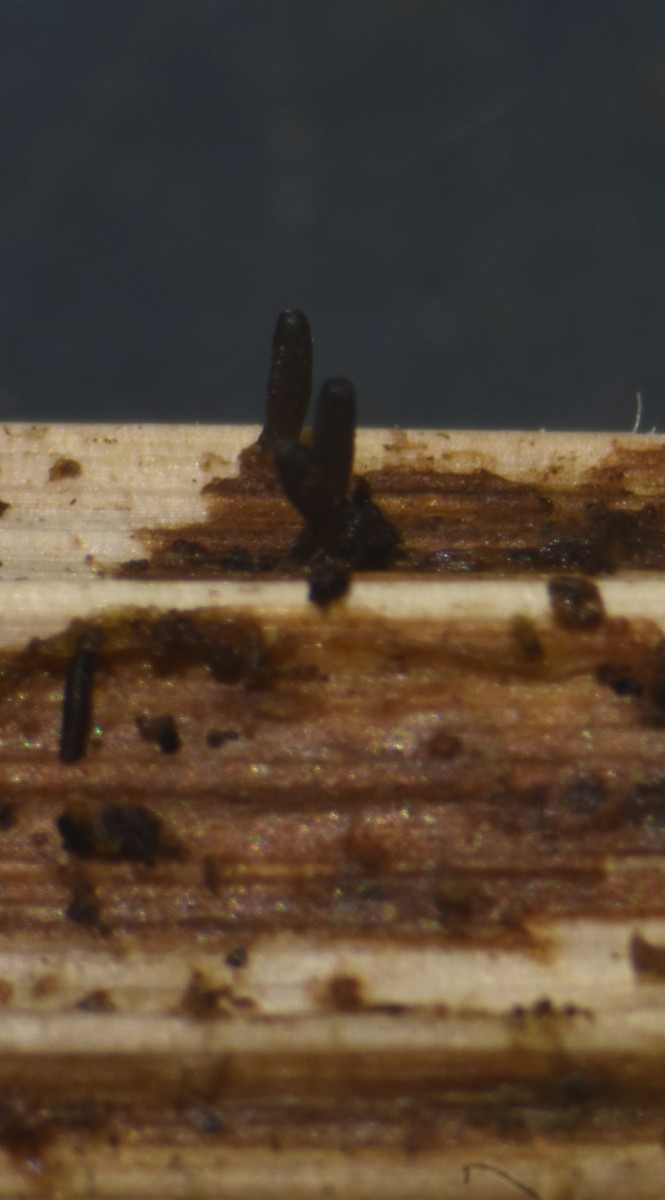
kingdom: Fungi
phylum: Ascomycota
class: Dothideomycetes
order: Acrospermales
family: Acrospermaceae
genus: Acrospermum
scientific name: Acrospermum compressum
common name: nælde-stængeltunge
